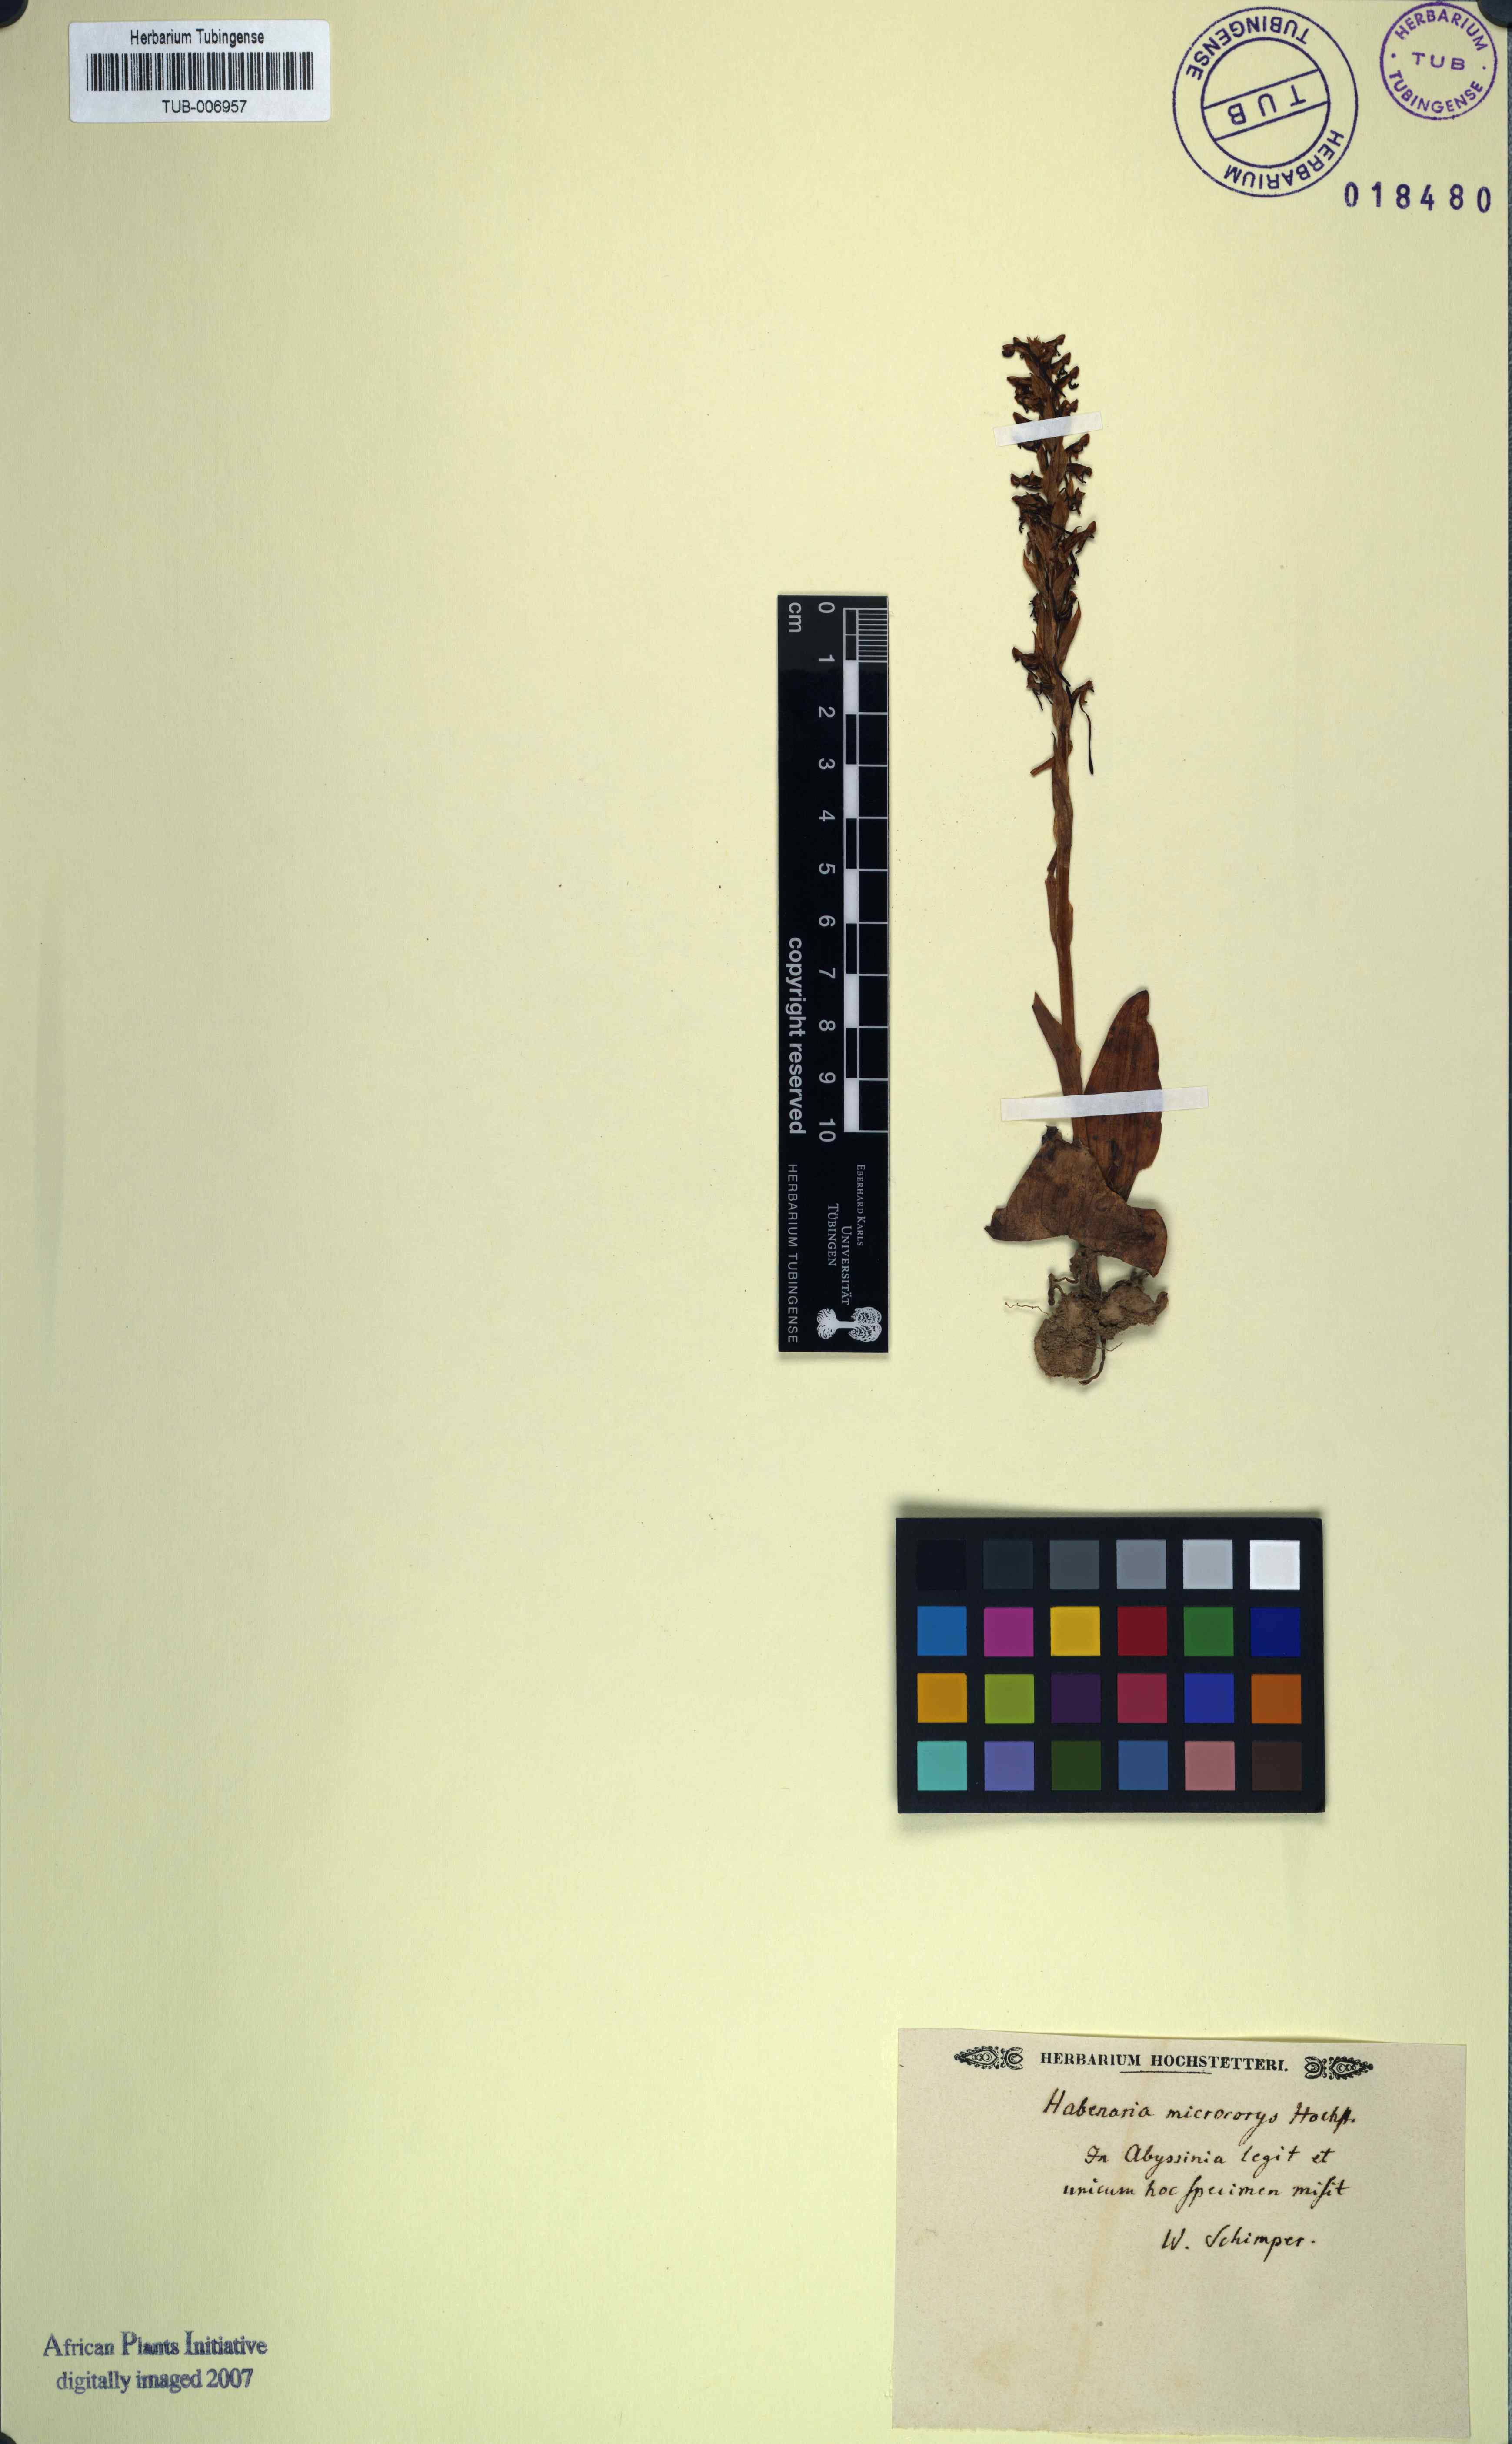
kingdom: Plantae
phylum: Tracheophyta
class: Liliopsida
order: Asparagales
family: Orchidaceae
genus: Habenaria
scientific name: Habenaria microcorys
